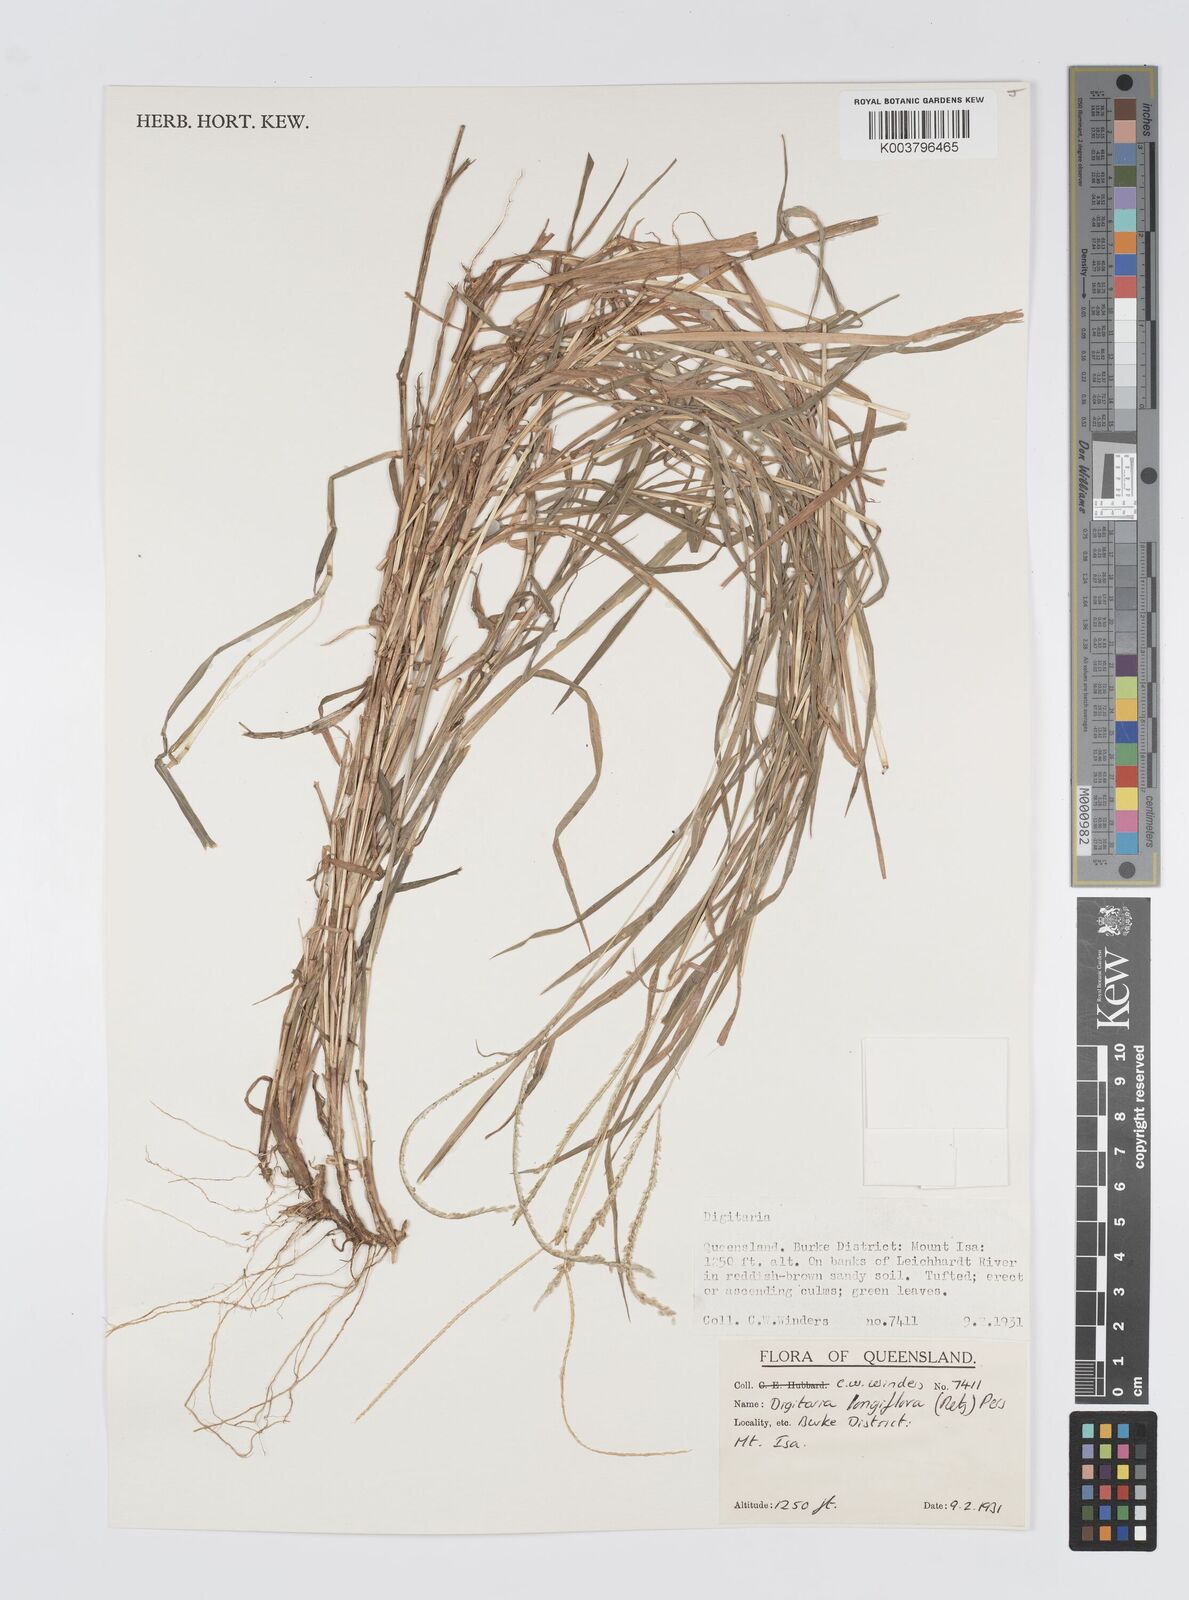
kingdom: Plantae
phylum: Tracheophyta
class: Liliopsida
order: Poales
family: Poaceae
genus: Digitaria
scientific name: Digitaria longiflora
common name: Wire crabgrass
